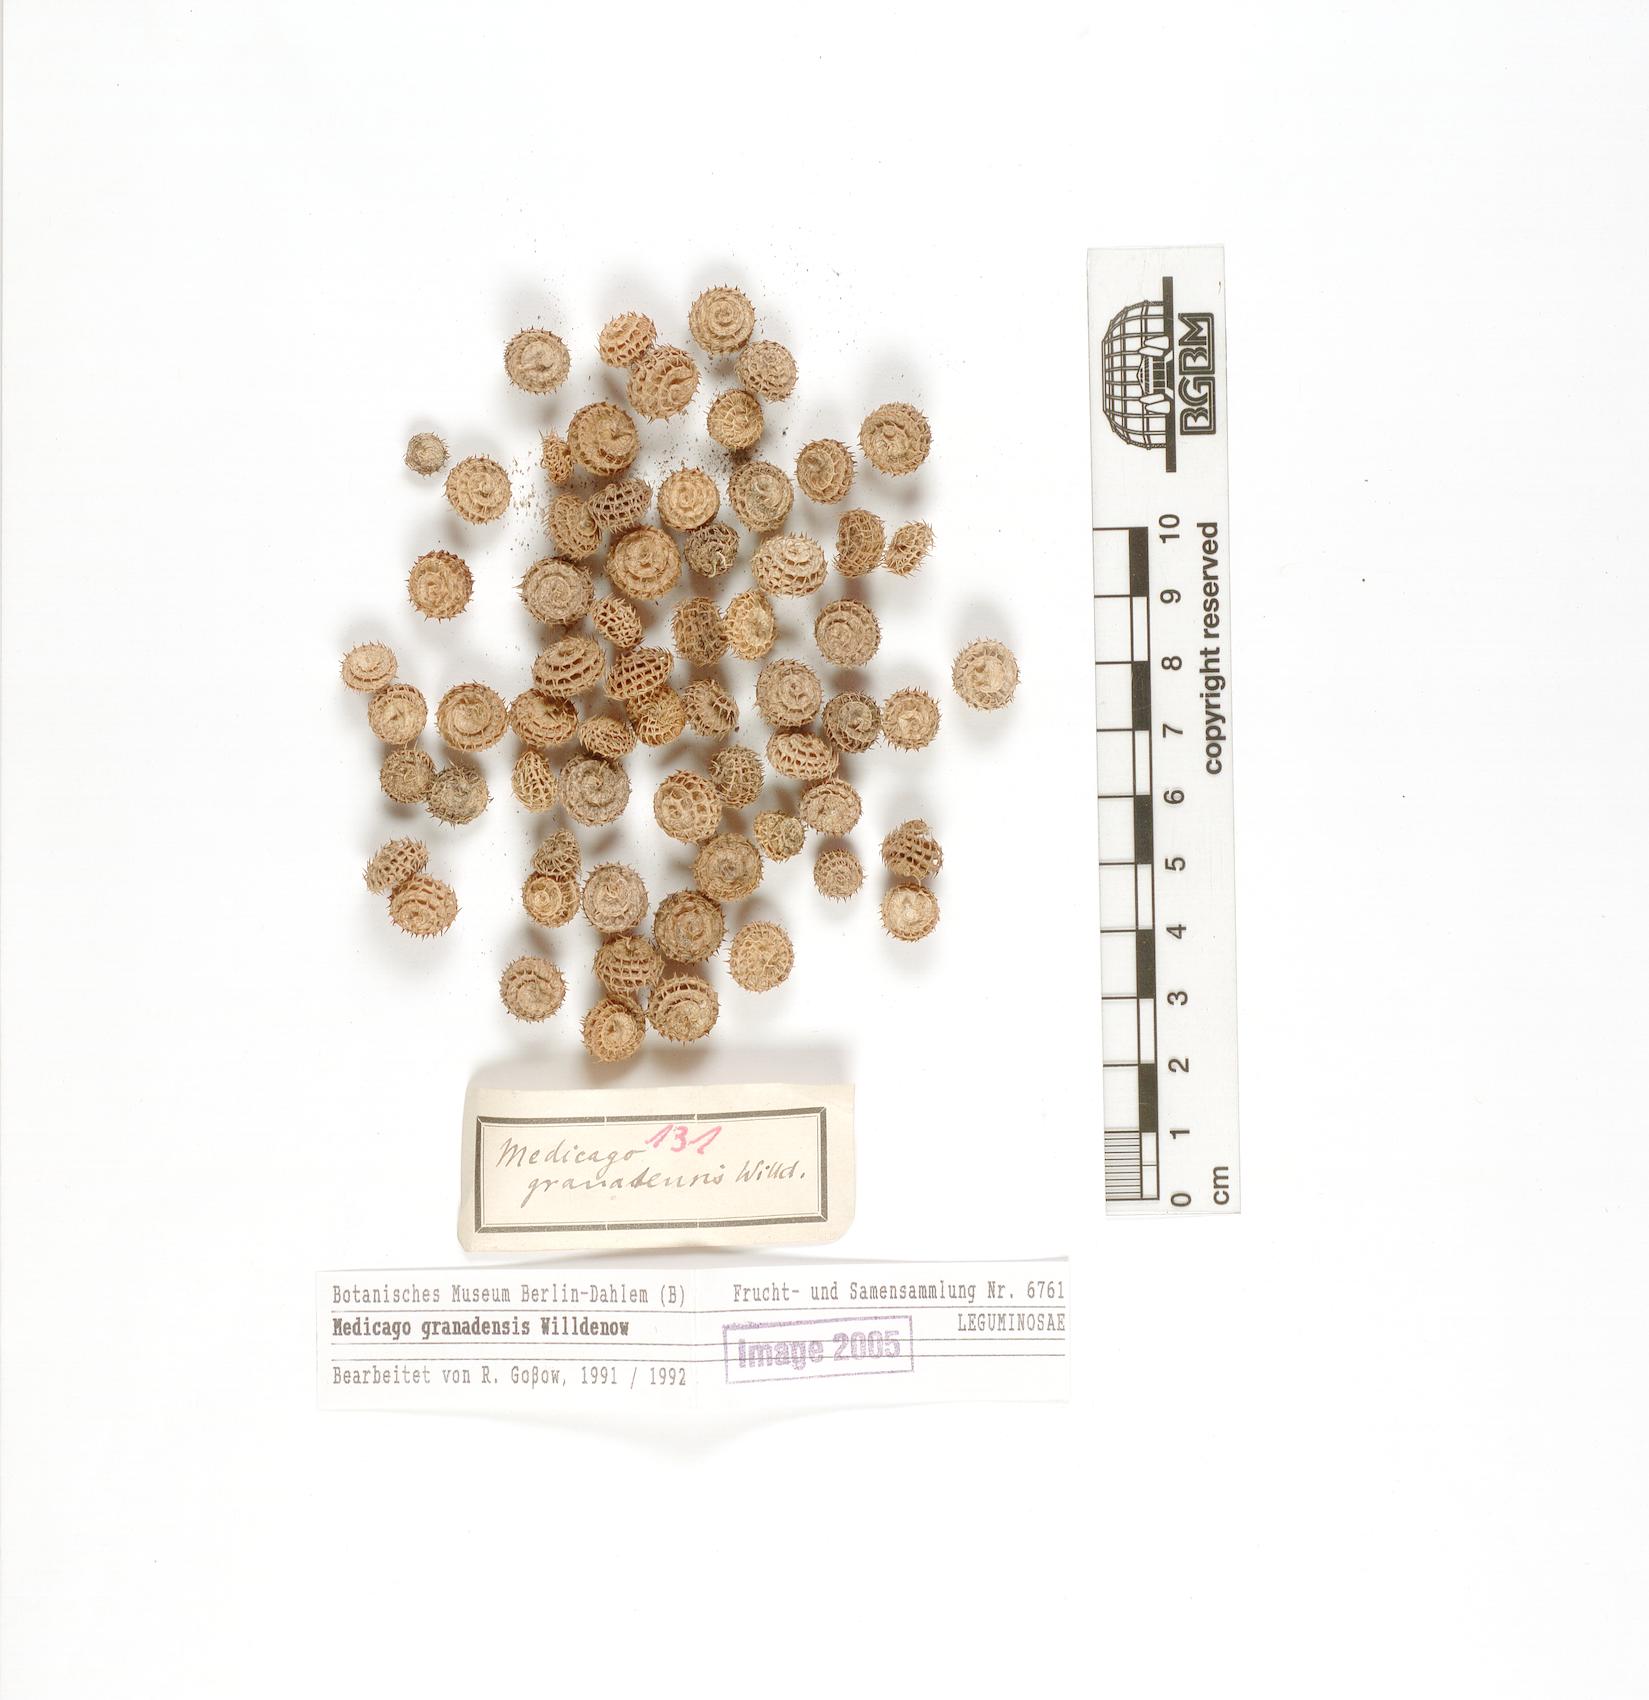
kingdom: Plantae
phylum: Tracheophyta
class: Magnoliopsida
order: Fabales
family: Fabaceae
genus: Medicago
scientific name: Medicago granadensis
